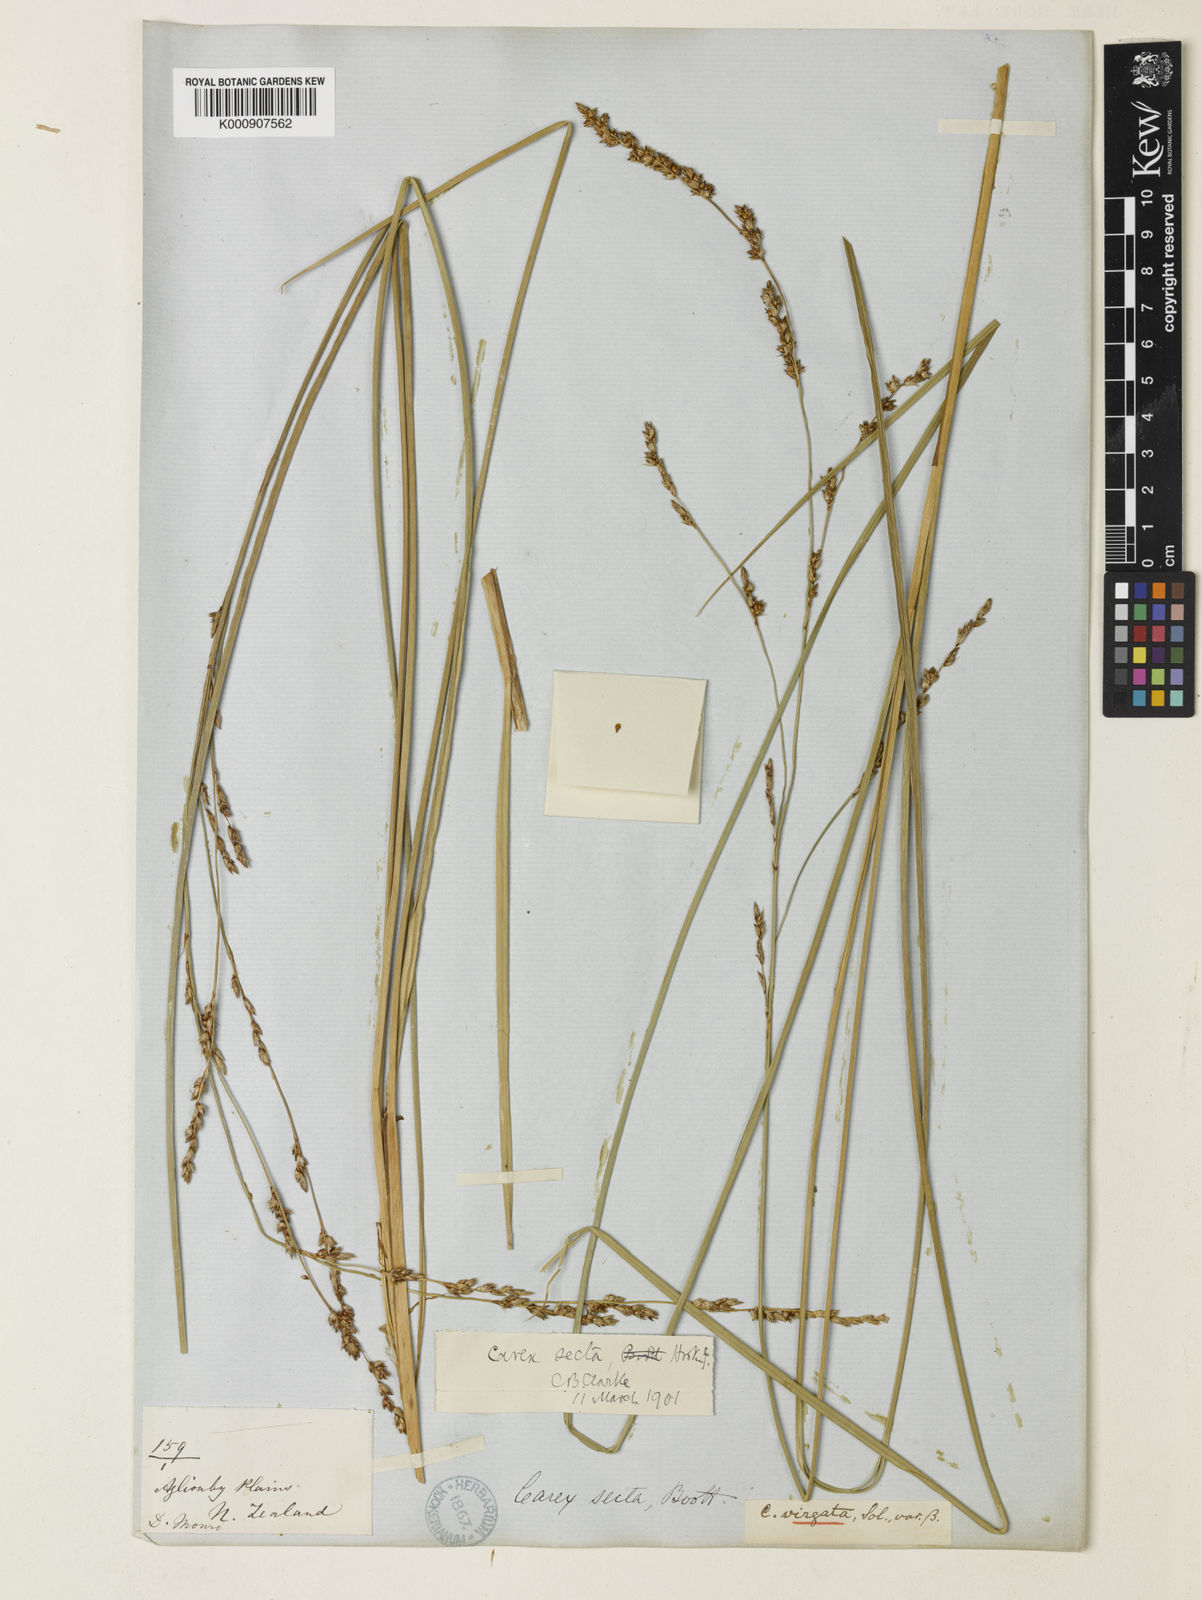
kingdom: Plantae
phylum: Tracheophyta
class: Liliopsida
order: Poales
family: Cyperaceae
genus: Carex
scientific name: Carex appressa
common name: Tussock sedge
